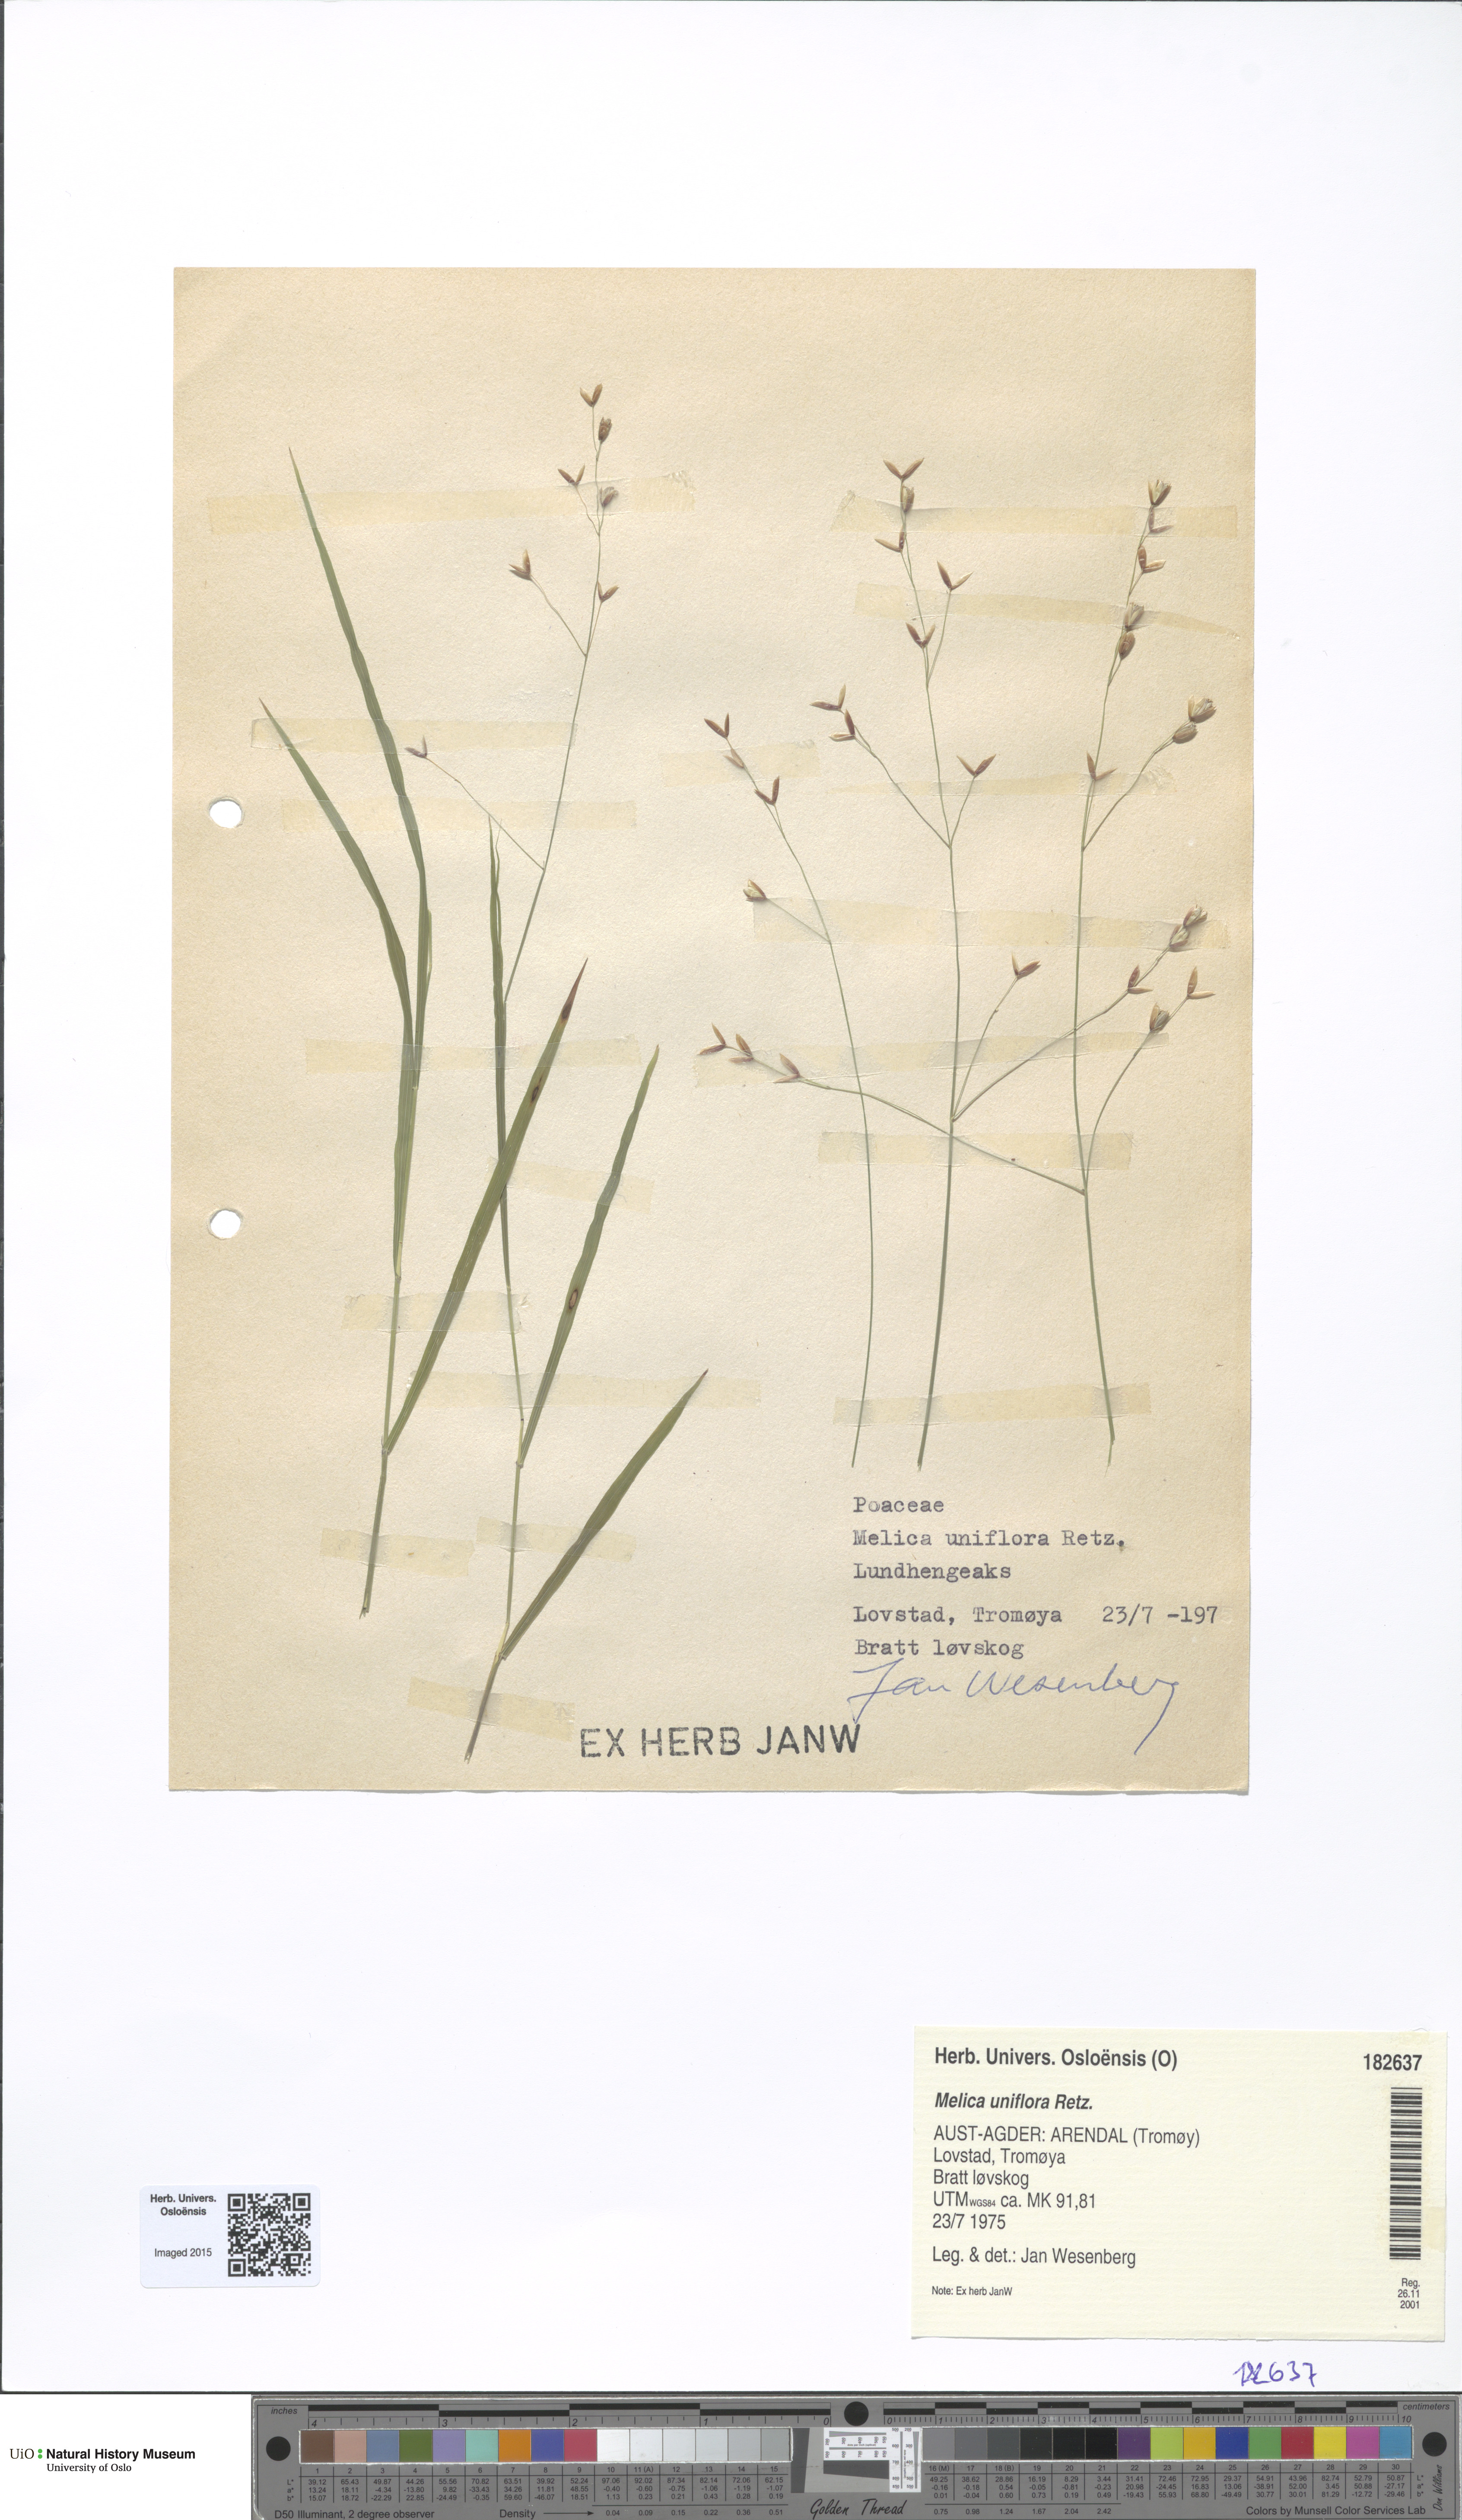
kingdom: Plantae
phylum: Tracheophyta
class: Liliopsida
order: Poales
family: Poaceae
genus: Melica
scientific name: Melica uniflora
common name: Wood melick
